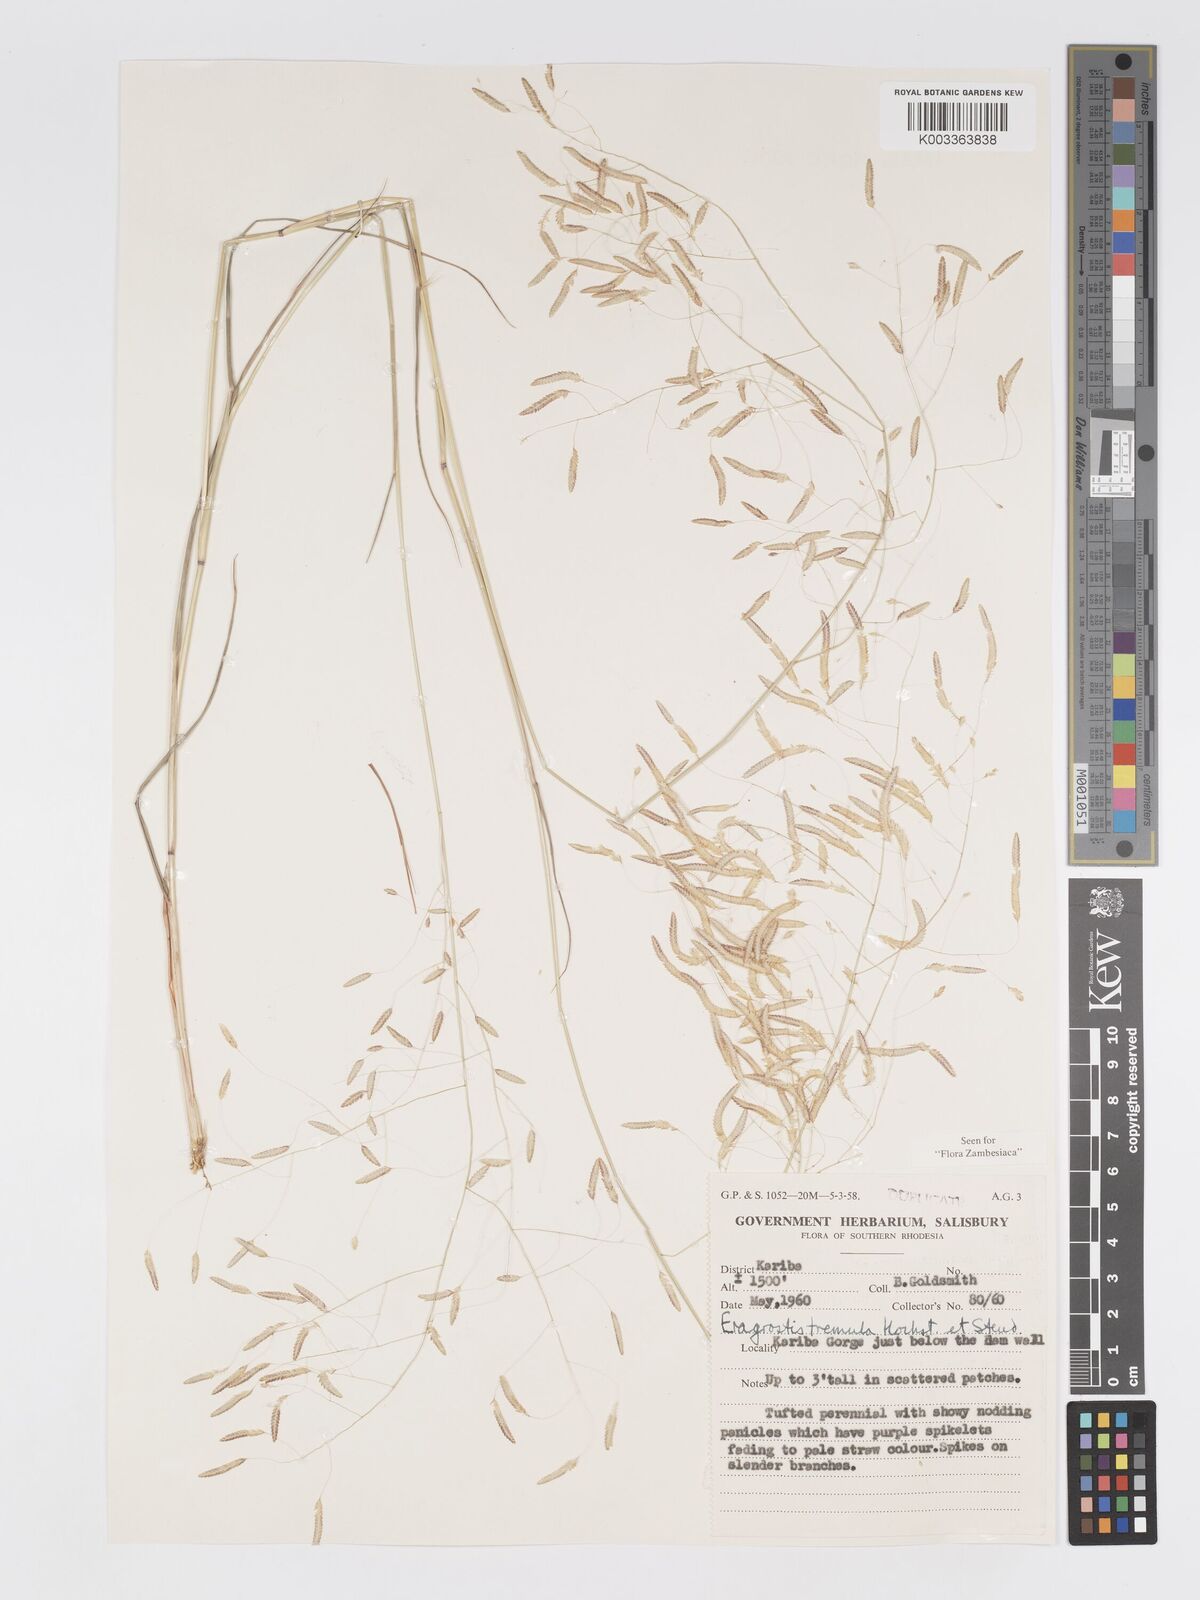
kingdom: Plantae
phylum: Tracheophyta
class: Liliopsida
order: Poales
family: Poaceae
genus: Eragrostis
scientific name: Eragrostis tremula
